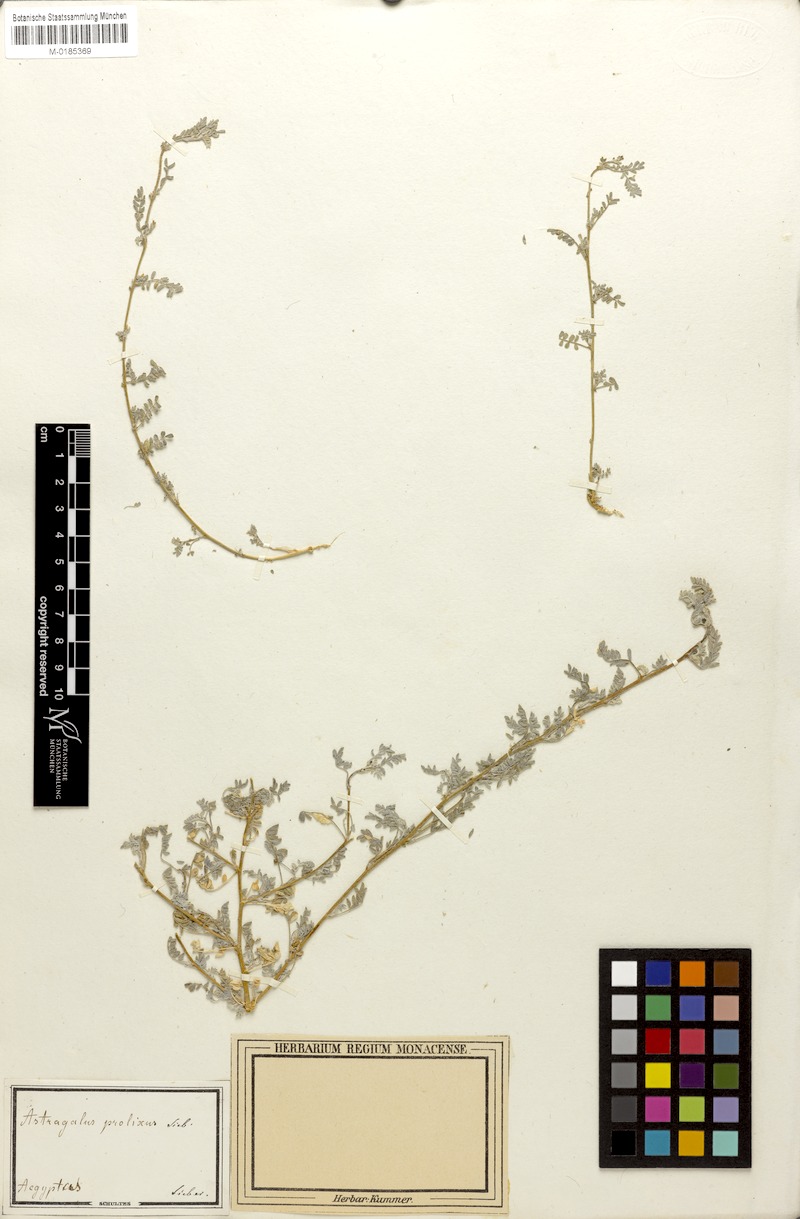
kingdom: Plantae
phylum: Tracheophyta
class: Magnoliopsida
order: Fabales
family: Fabaceae
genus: Astragalus
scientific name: Astragalus vogelii
